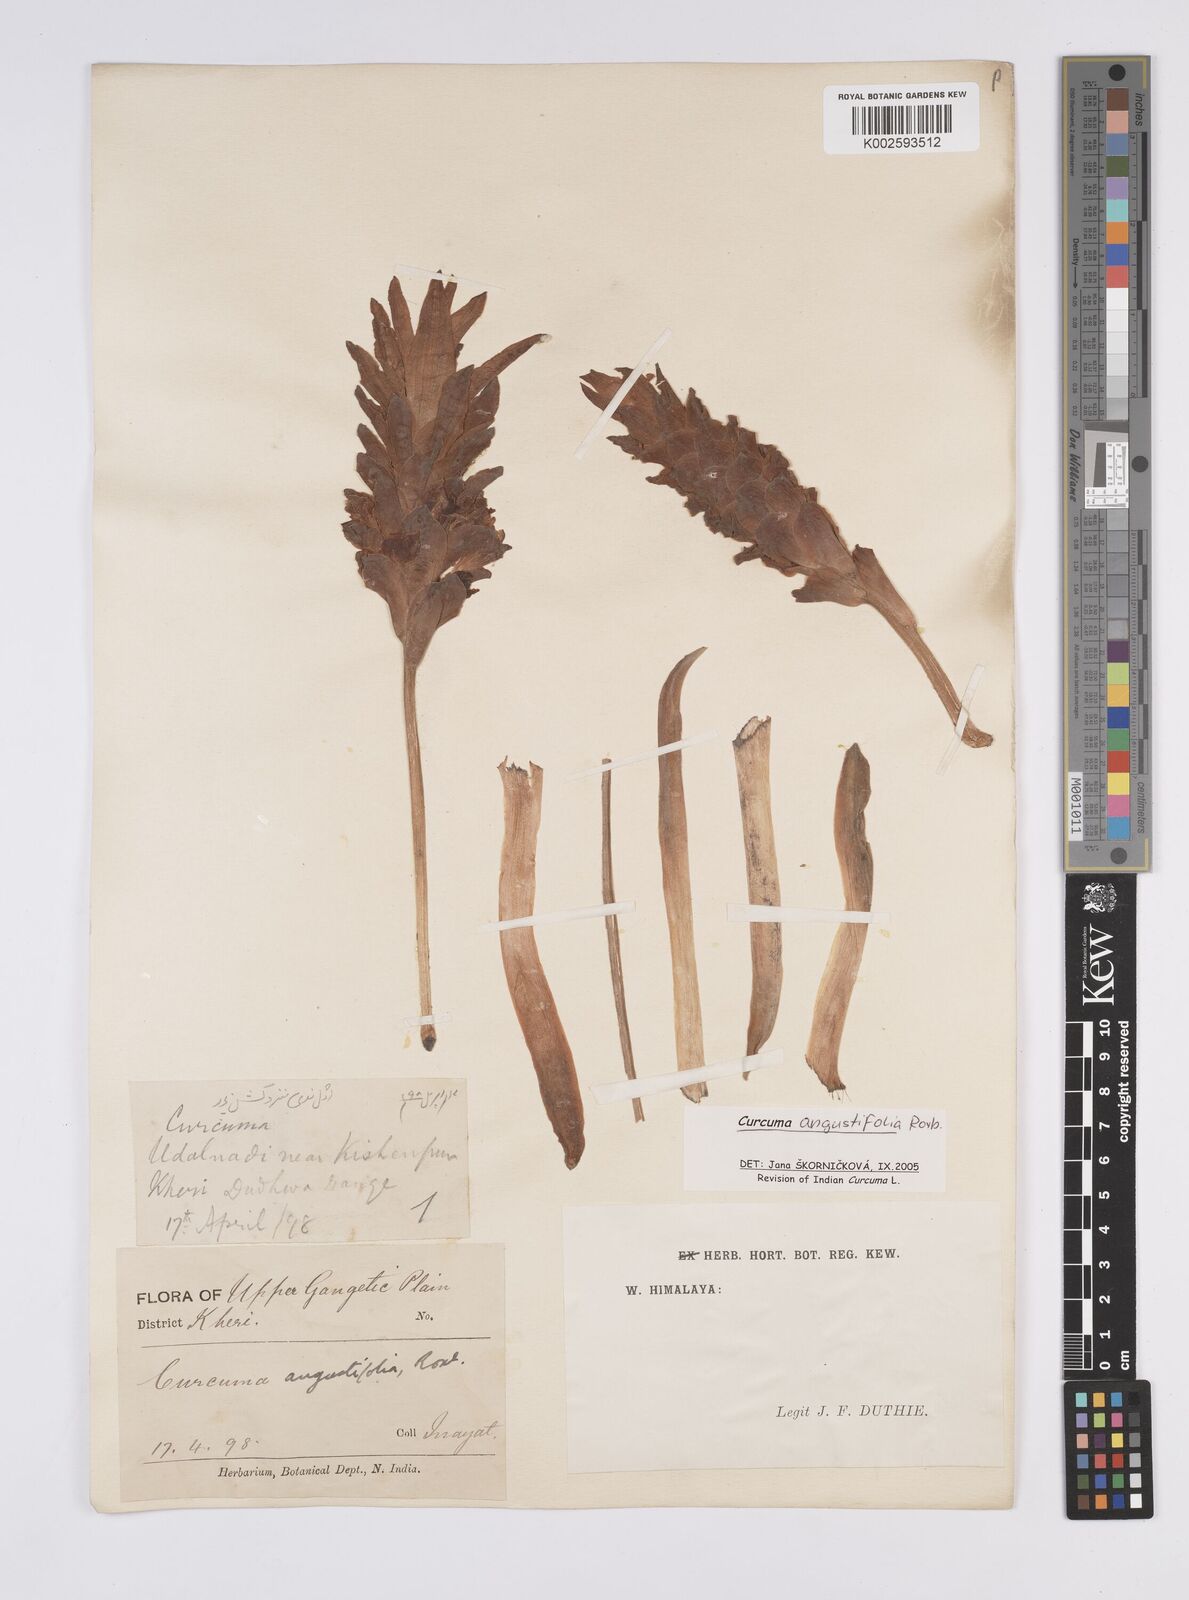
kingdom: Plantae
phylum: Tracheophyta
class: Liliopsida
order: Zingiberales
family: Zingiberaceae
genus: Curcuma
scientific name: Curcuma angustifolia
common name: East indian arrowroot
